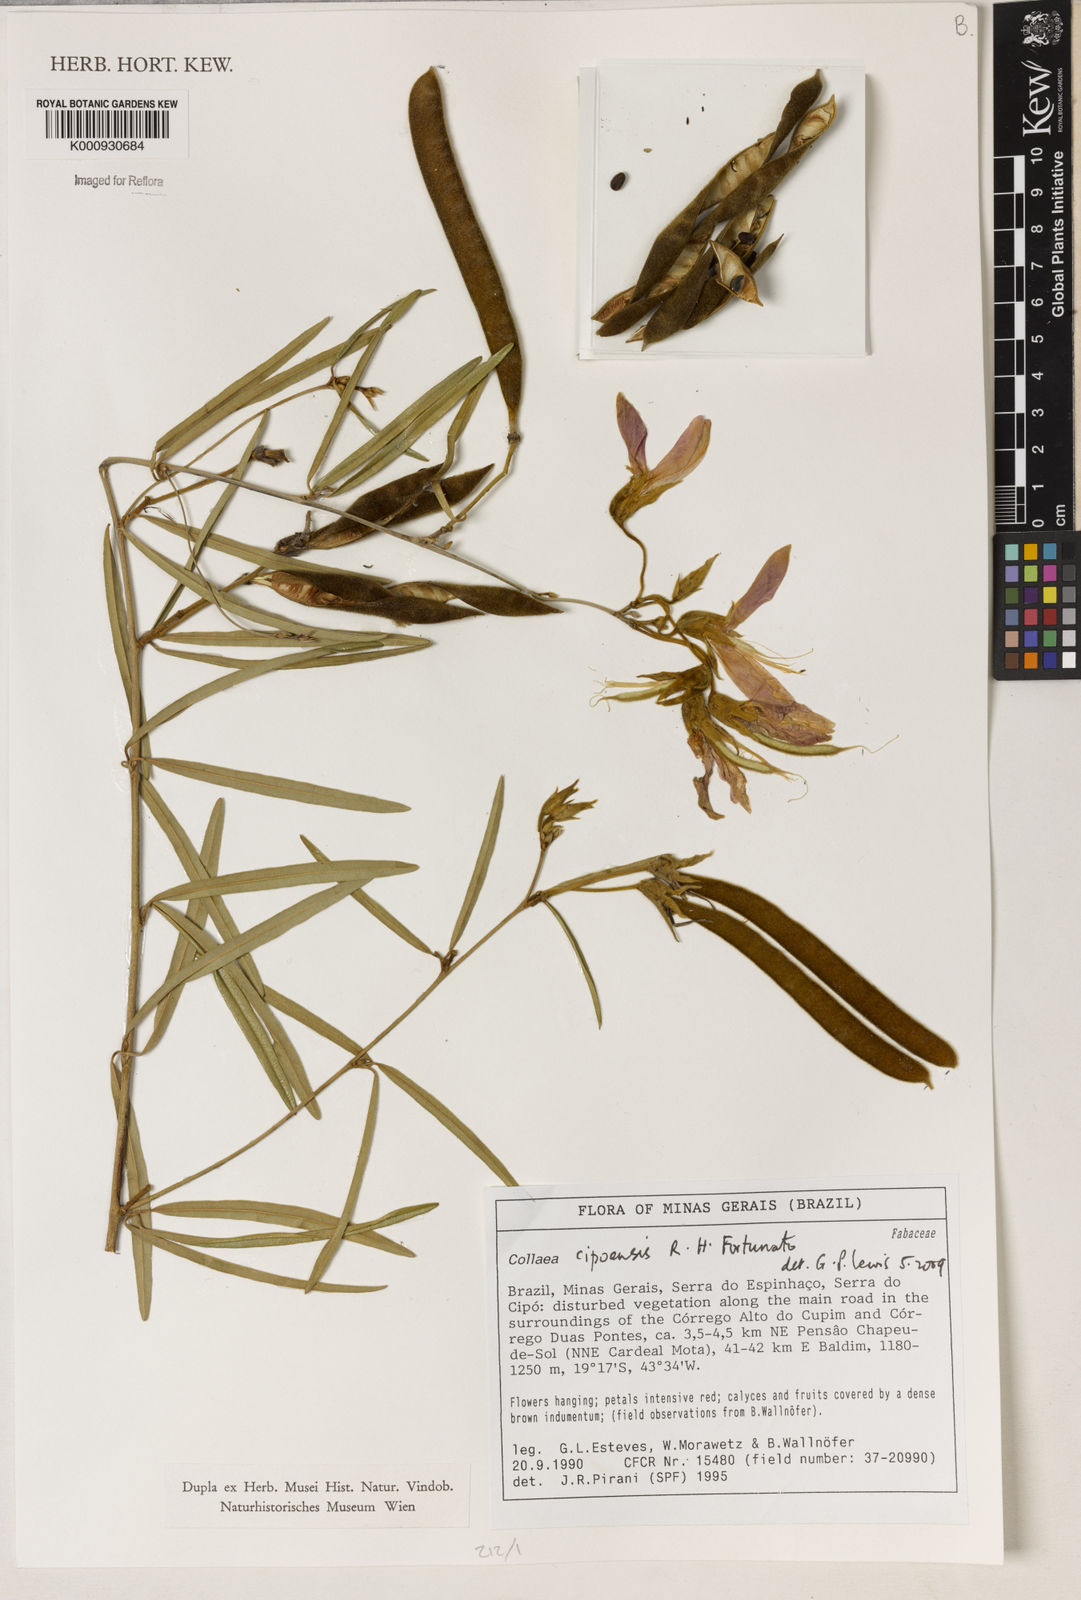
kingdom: Plantae
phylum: Tracheophyta
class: Liliopsida
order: Asparagales
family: Orchidaceae
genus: Pelexia
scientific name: Pelexia
